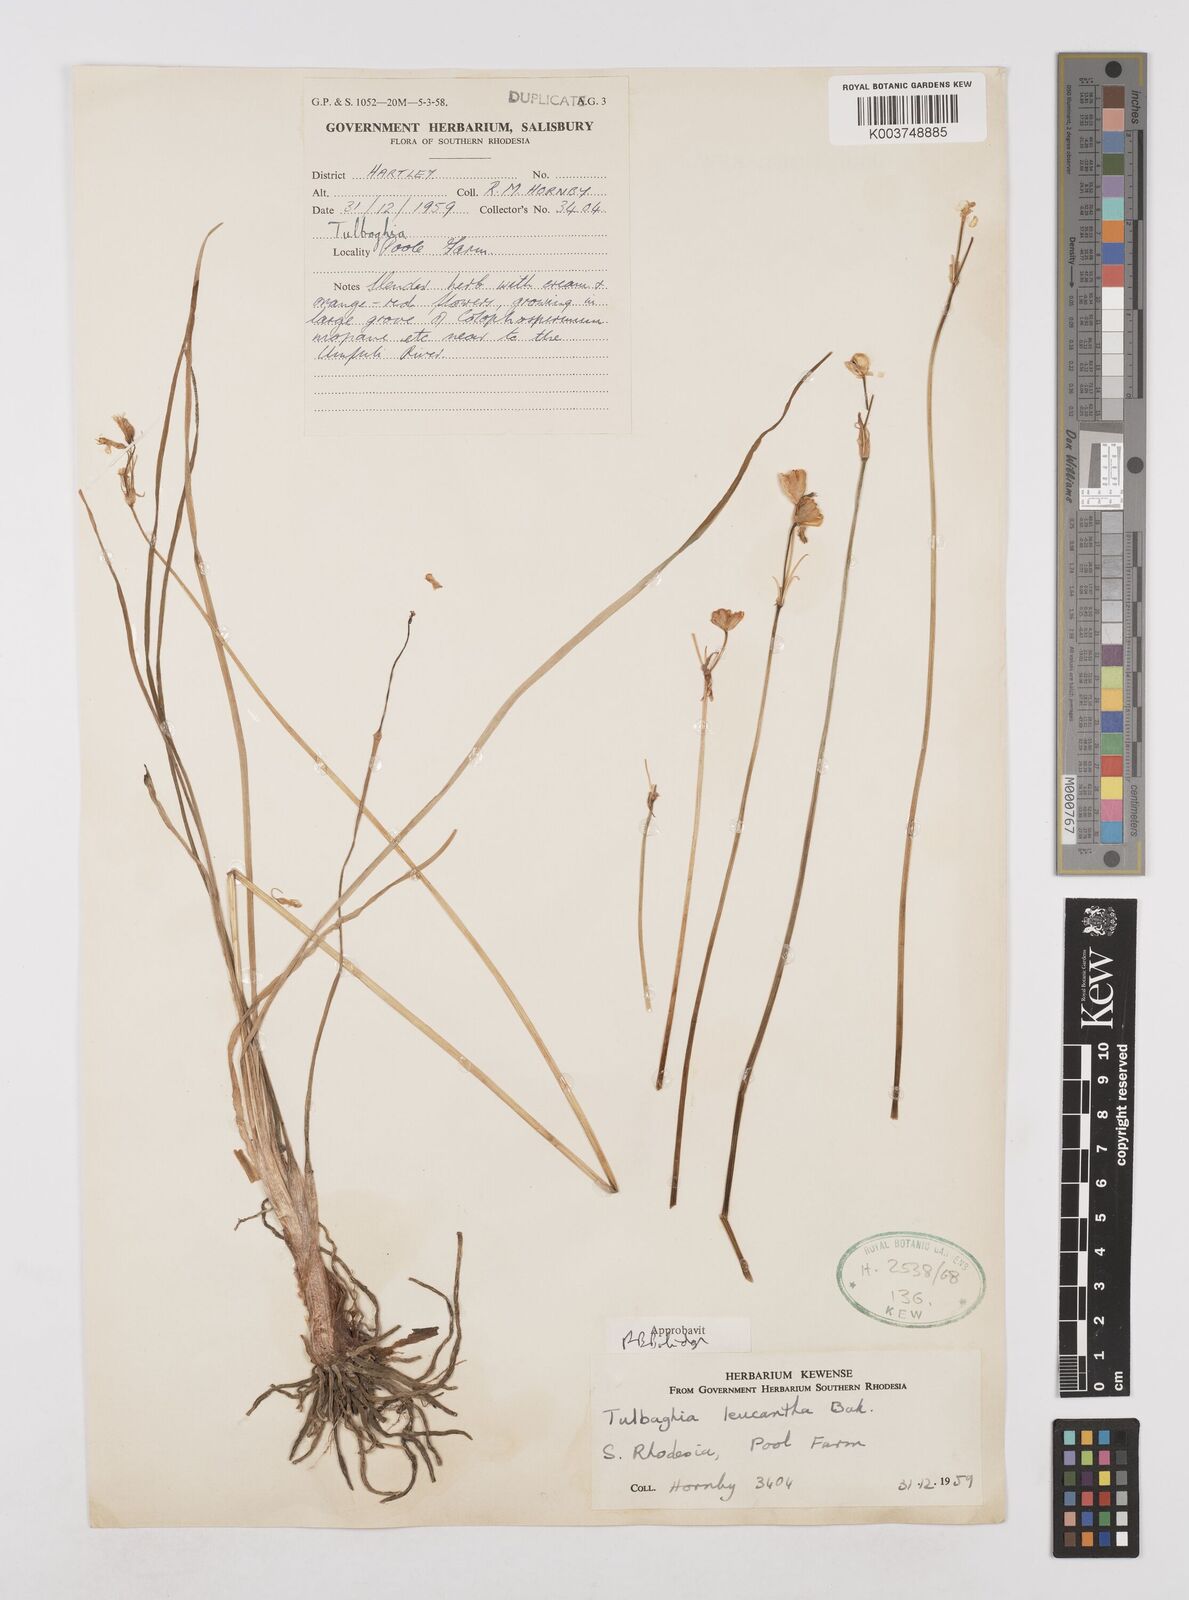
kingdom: Plantae
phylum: Tracheophyta
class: Liliopsida
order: Asparagales
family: Amaryllidaceae
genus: Tulbaghia
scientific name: Tulbaghia leucantha
